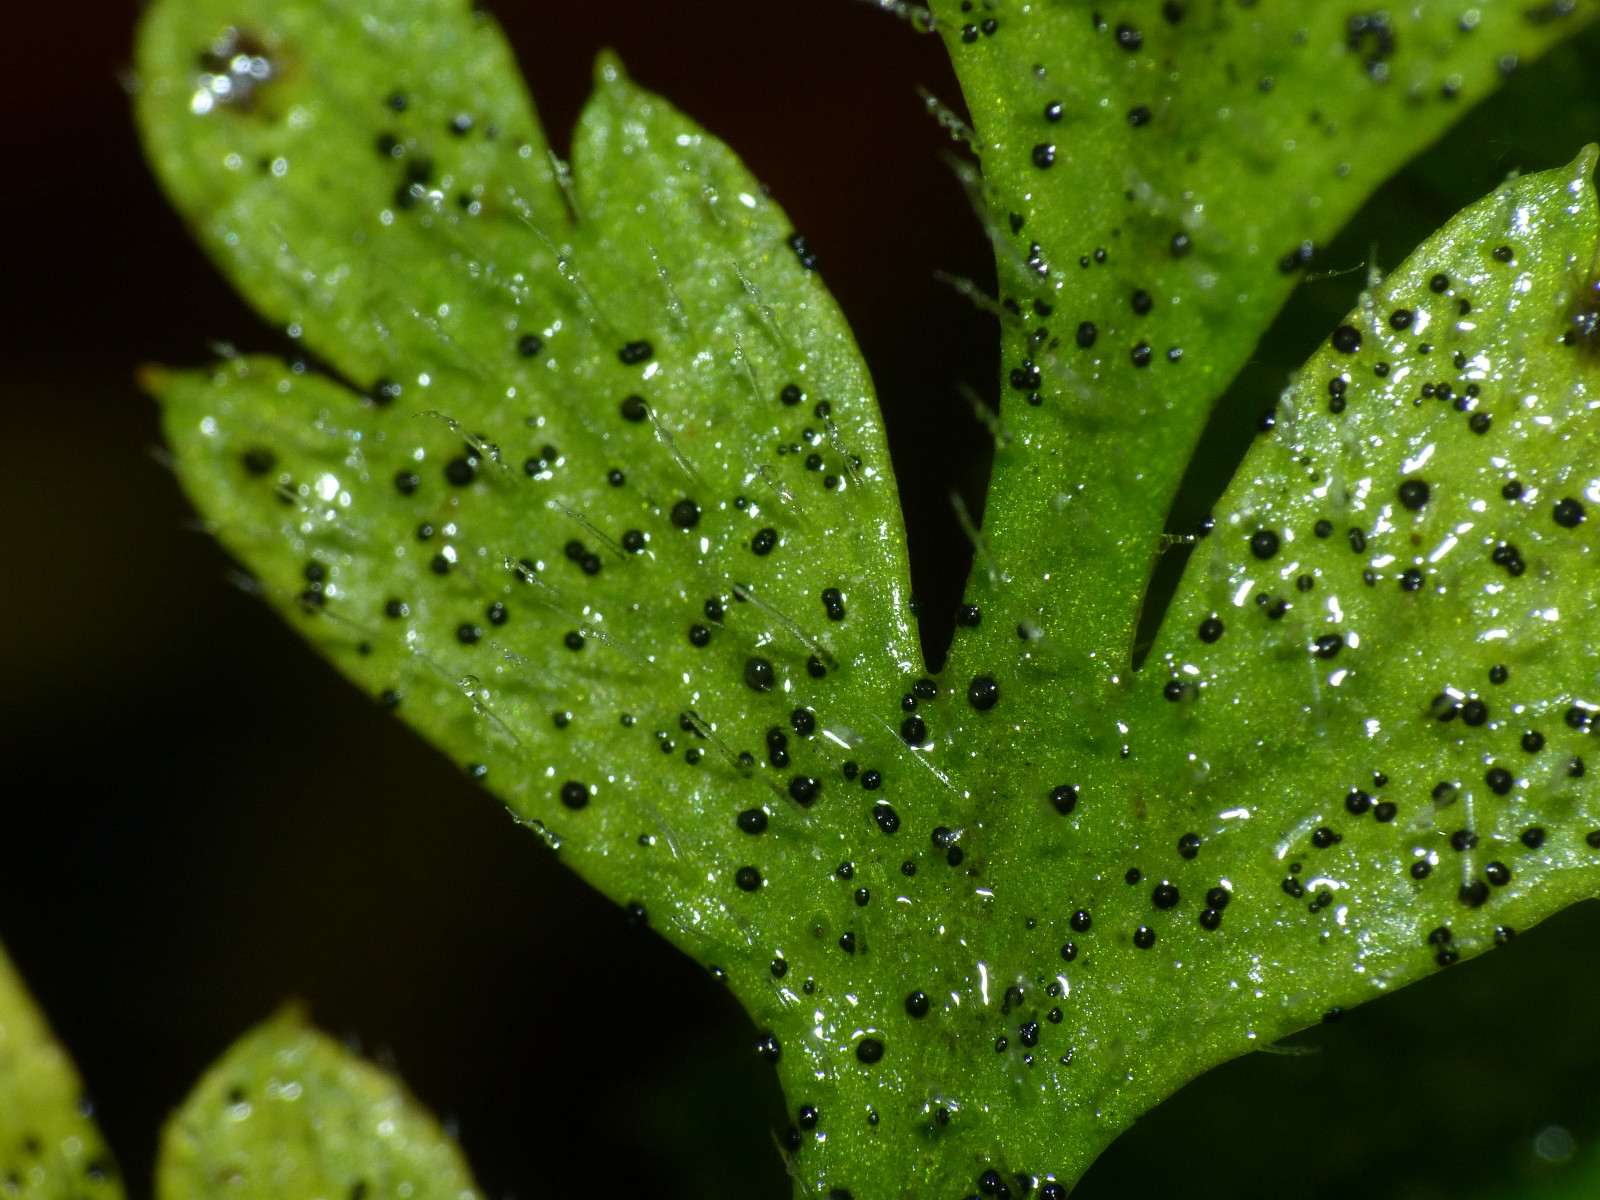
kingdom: Fungi
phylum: Ascomycota
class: Dothideomycetes
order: Venturiales
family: Venturiaceae
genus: Coleroa
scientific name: Coleroa robertiani
